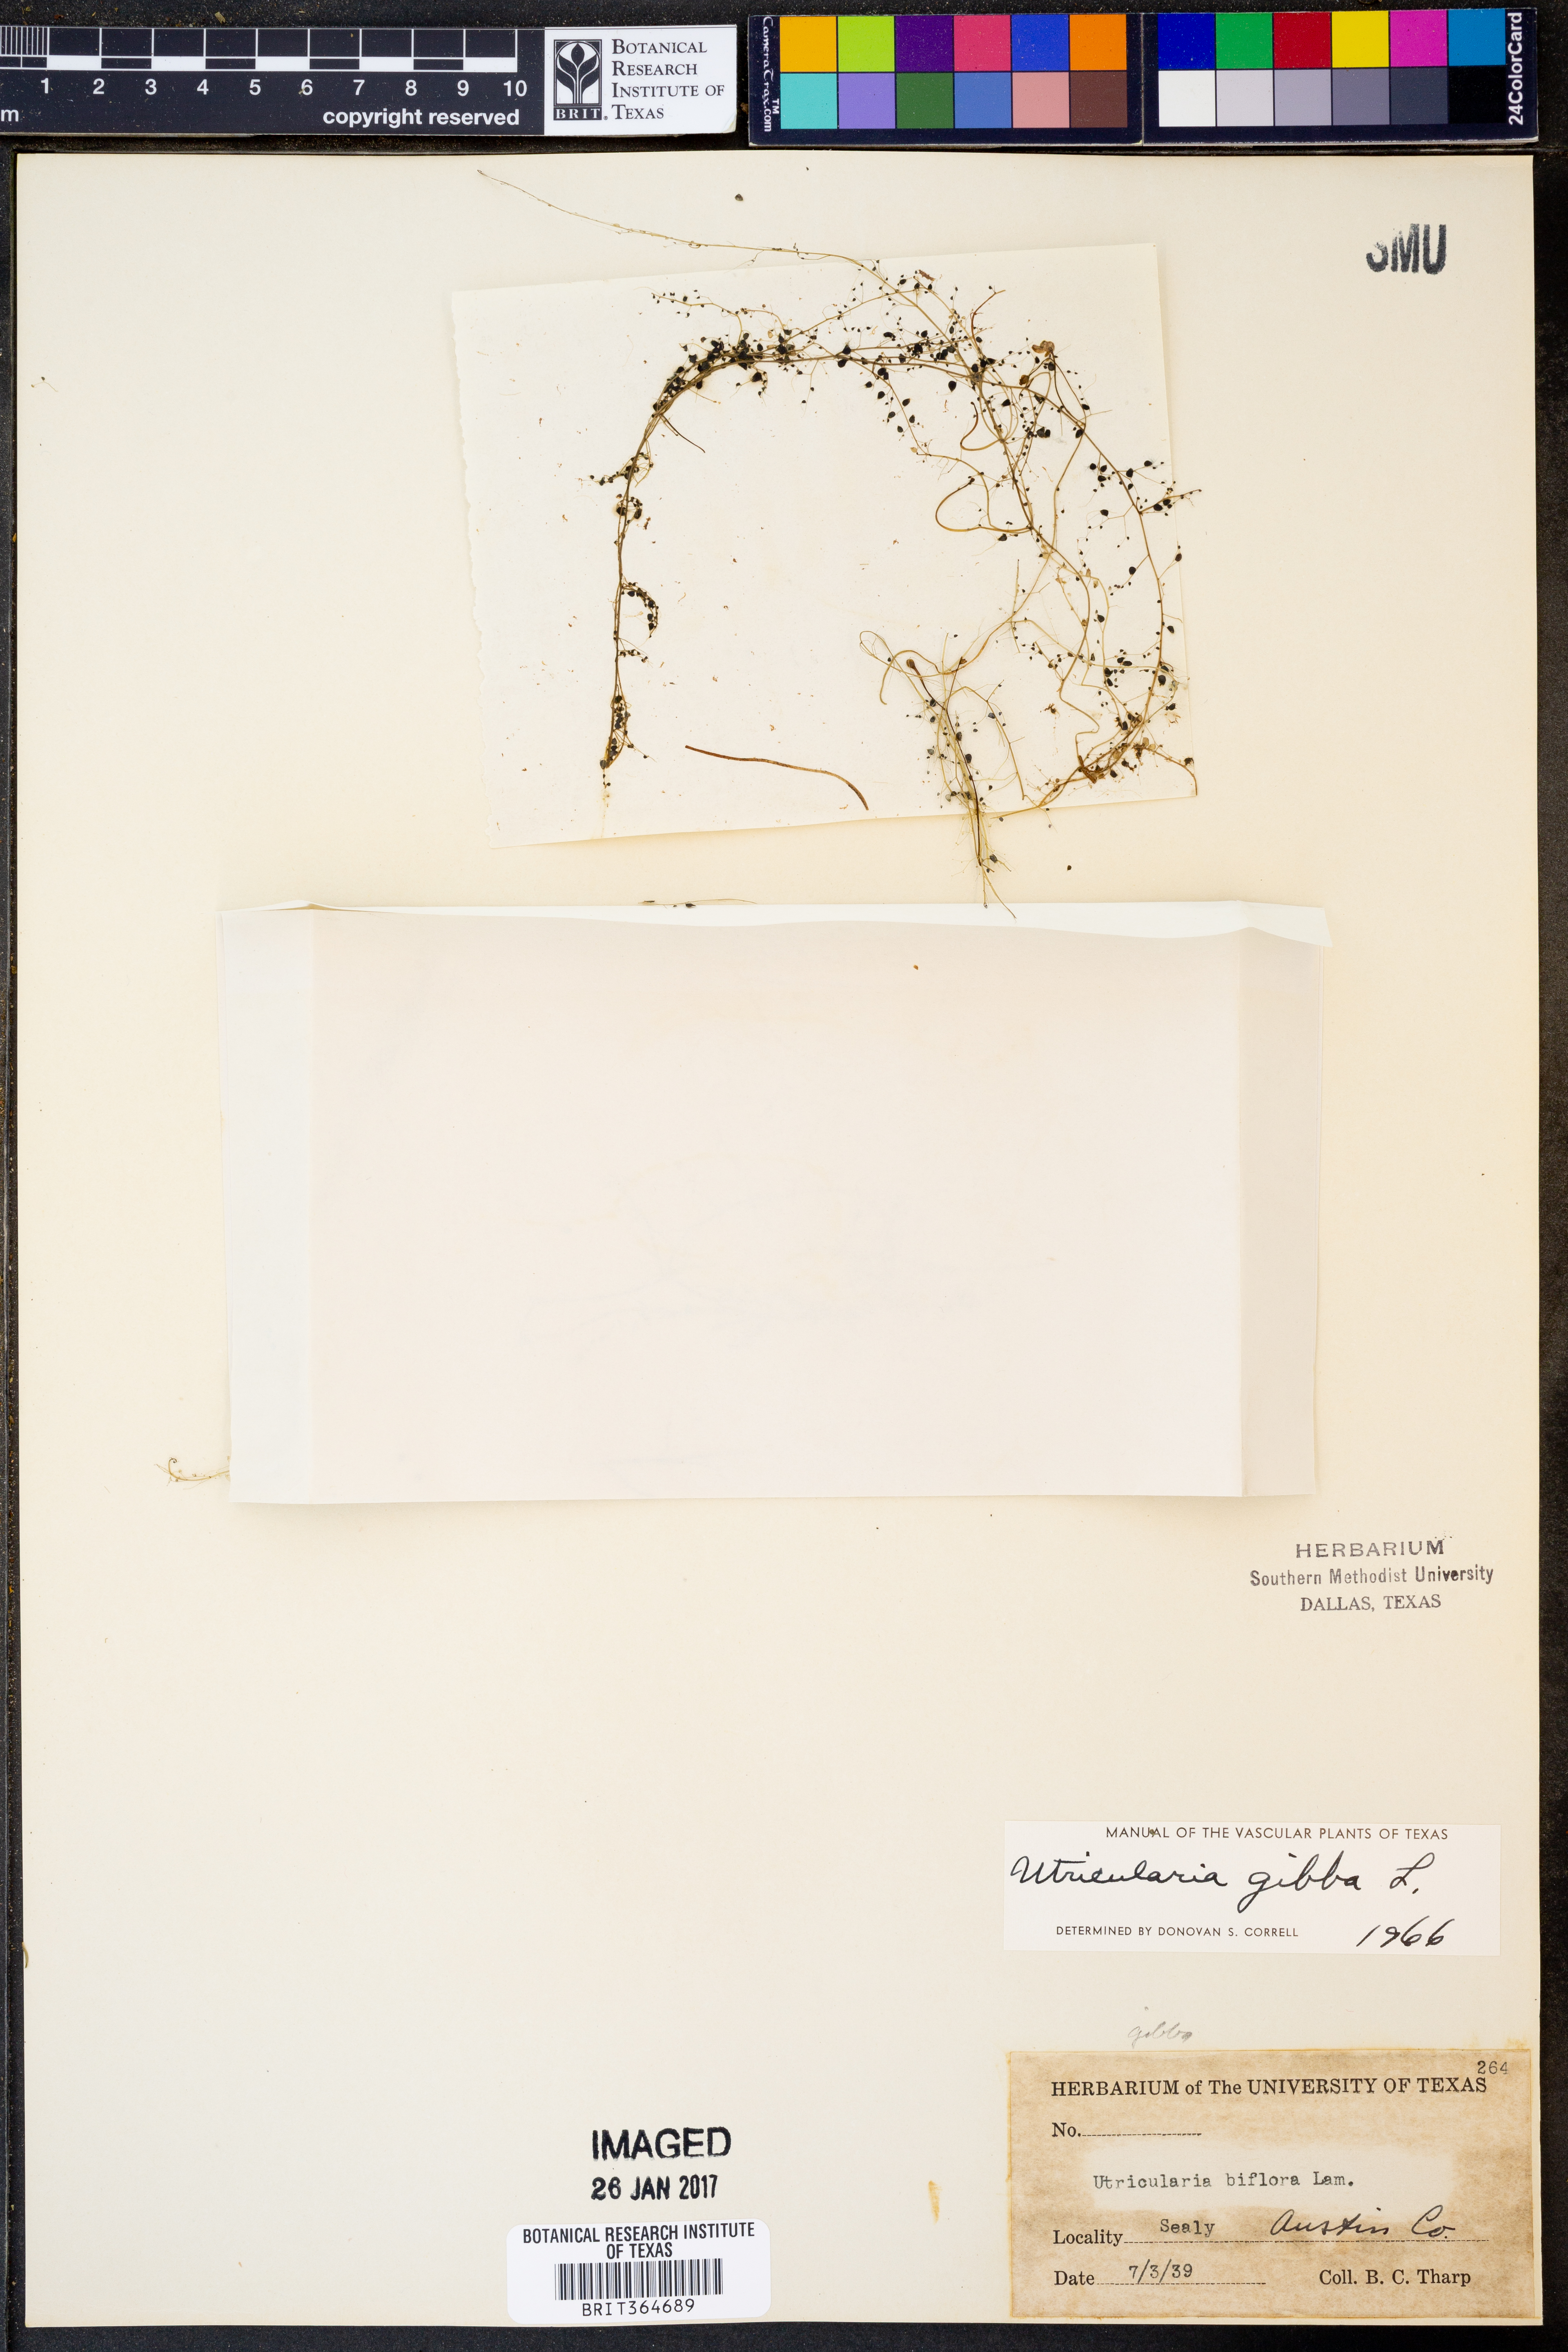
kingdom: Plantae
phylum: Tracheophyta
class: Magnoliopsida
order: Lamiales
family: Lentibulariaceae
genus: Utricularia
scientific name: Utricularia gibba
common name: Humped bladderwort
